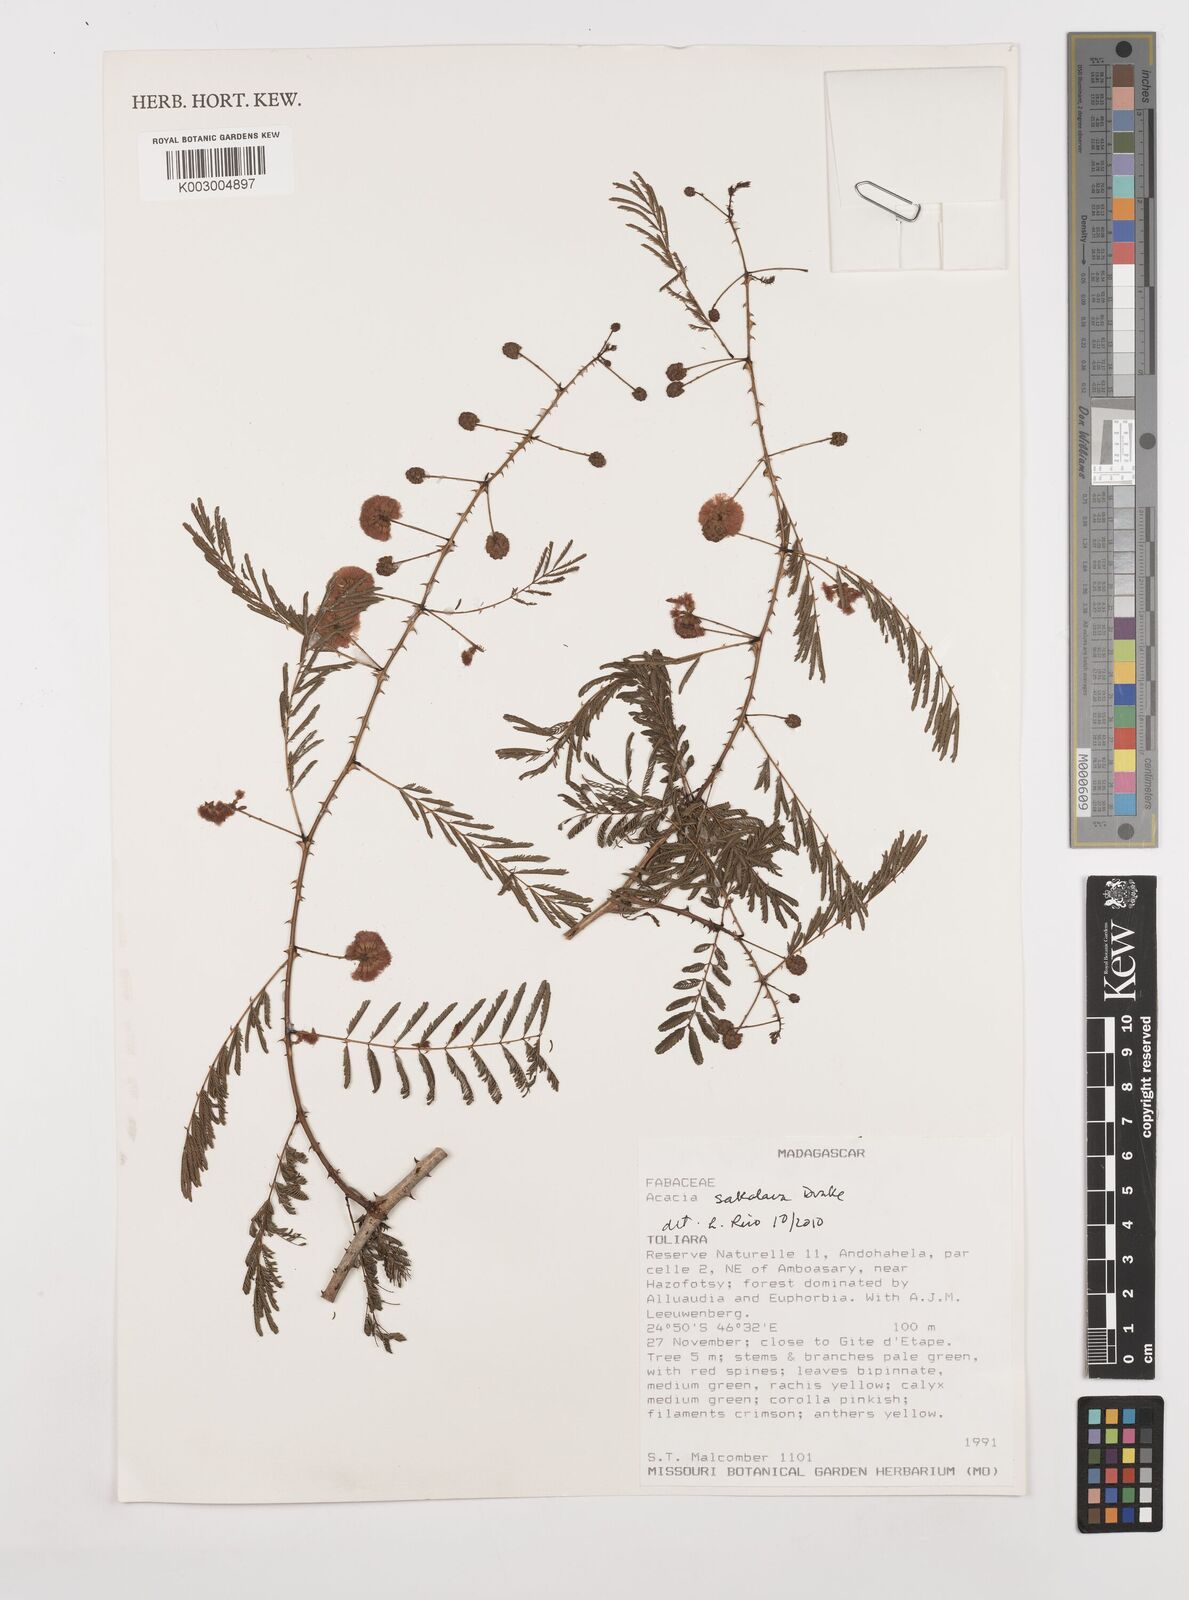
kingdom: Plantae
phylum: Tracheophyta
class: Magnoliopsida
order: Fabales
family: Fabaceae
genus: Senegalia
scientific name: Senegalia sakalava
